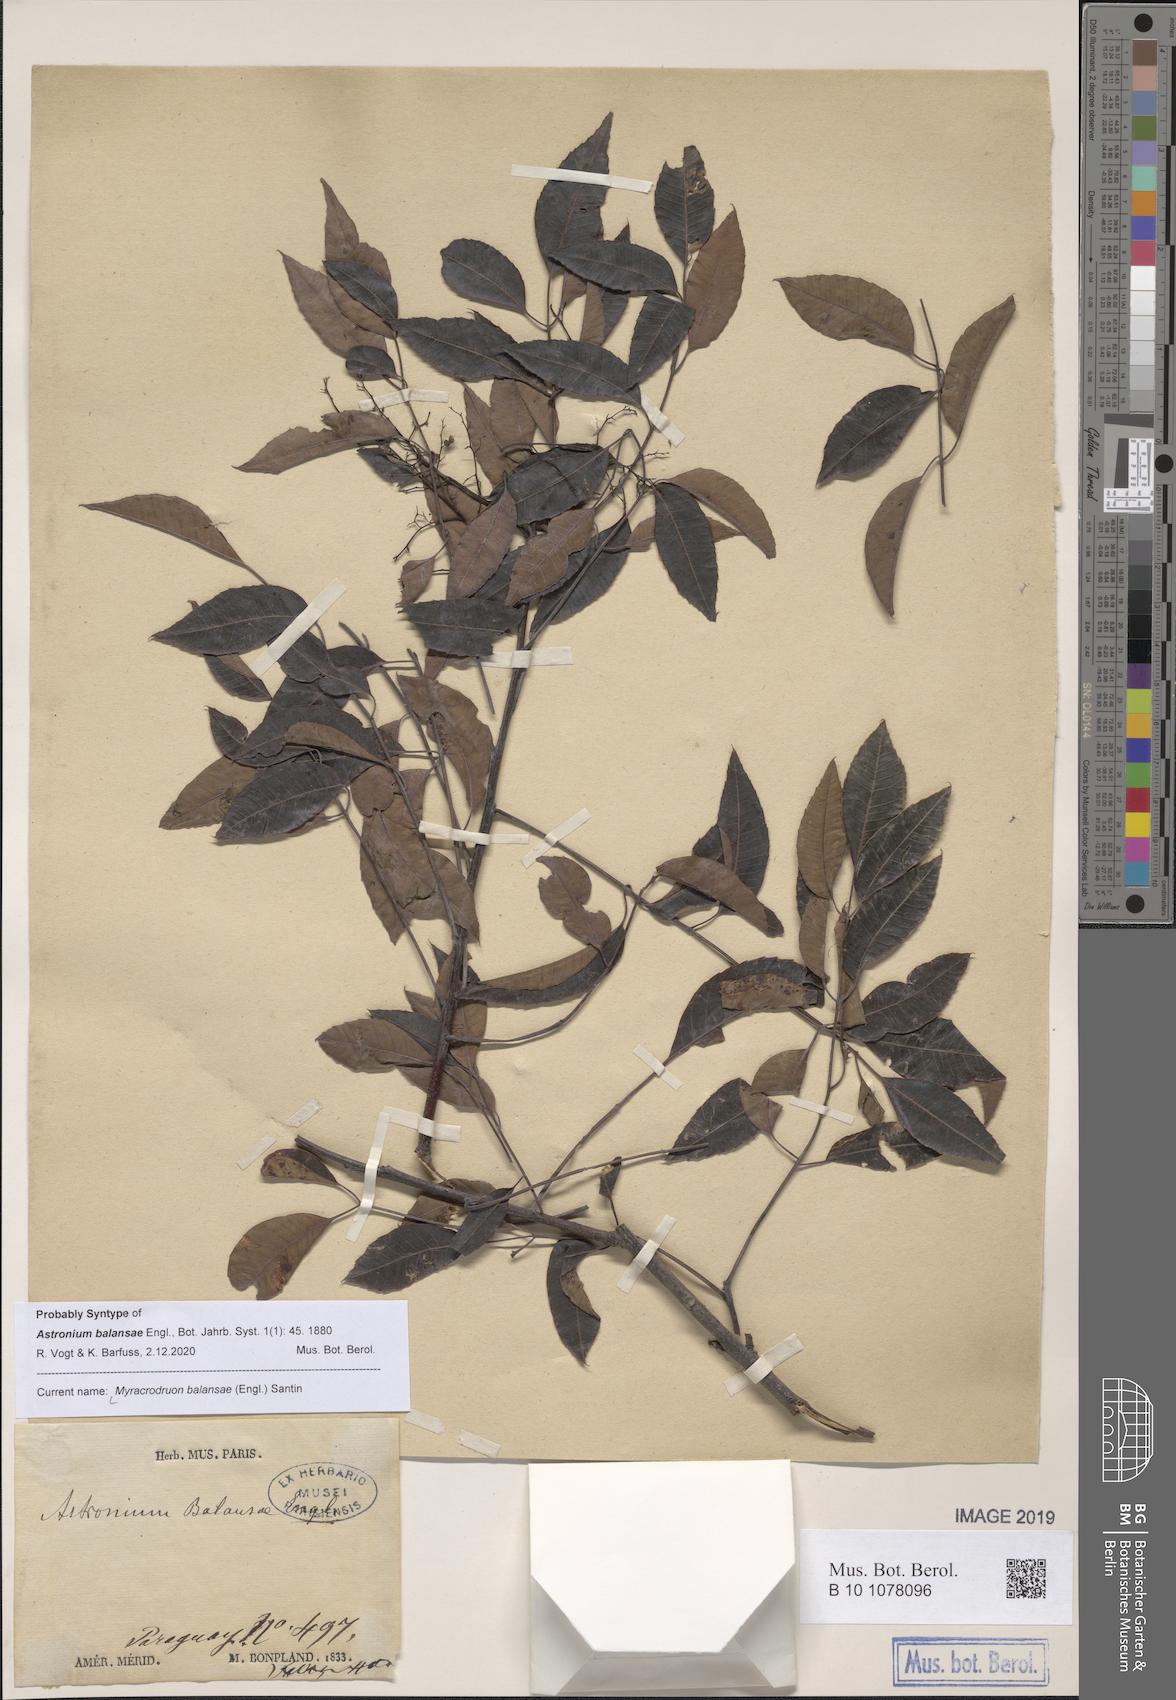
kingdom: Plantae
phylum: Tracheophyta
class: Magnoliopsida
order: Sapindales
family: Anacardiaceae
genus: Myracrodruon
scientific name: Myracrodruon balansae
